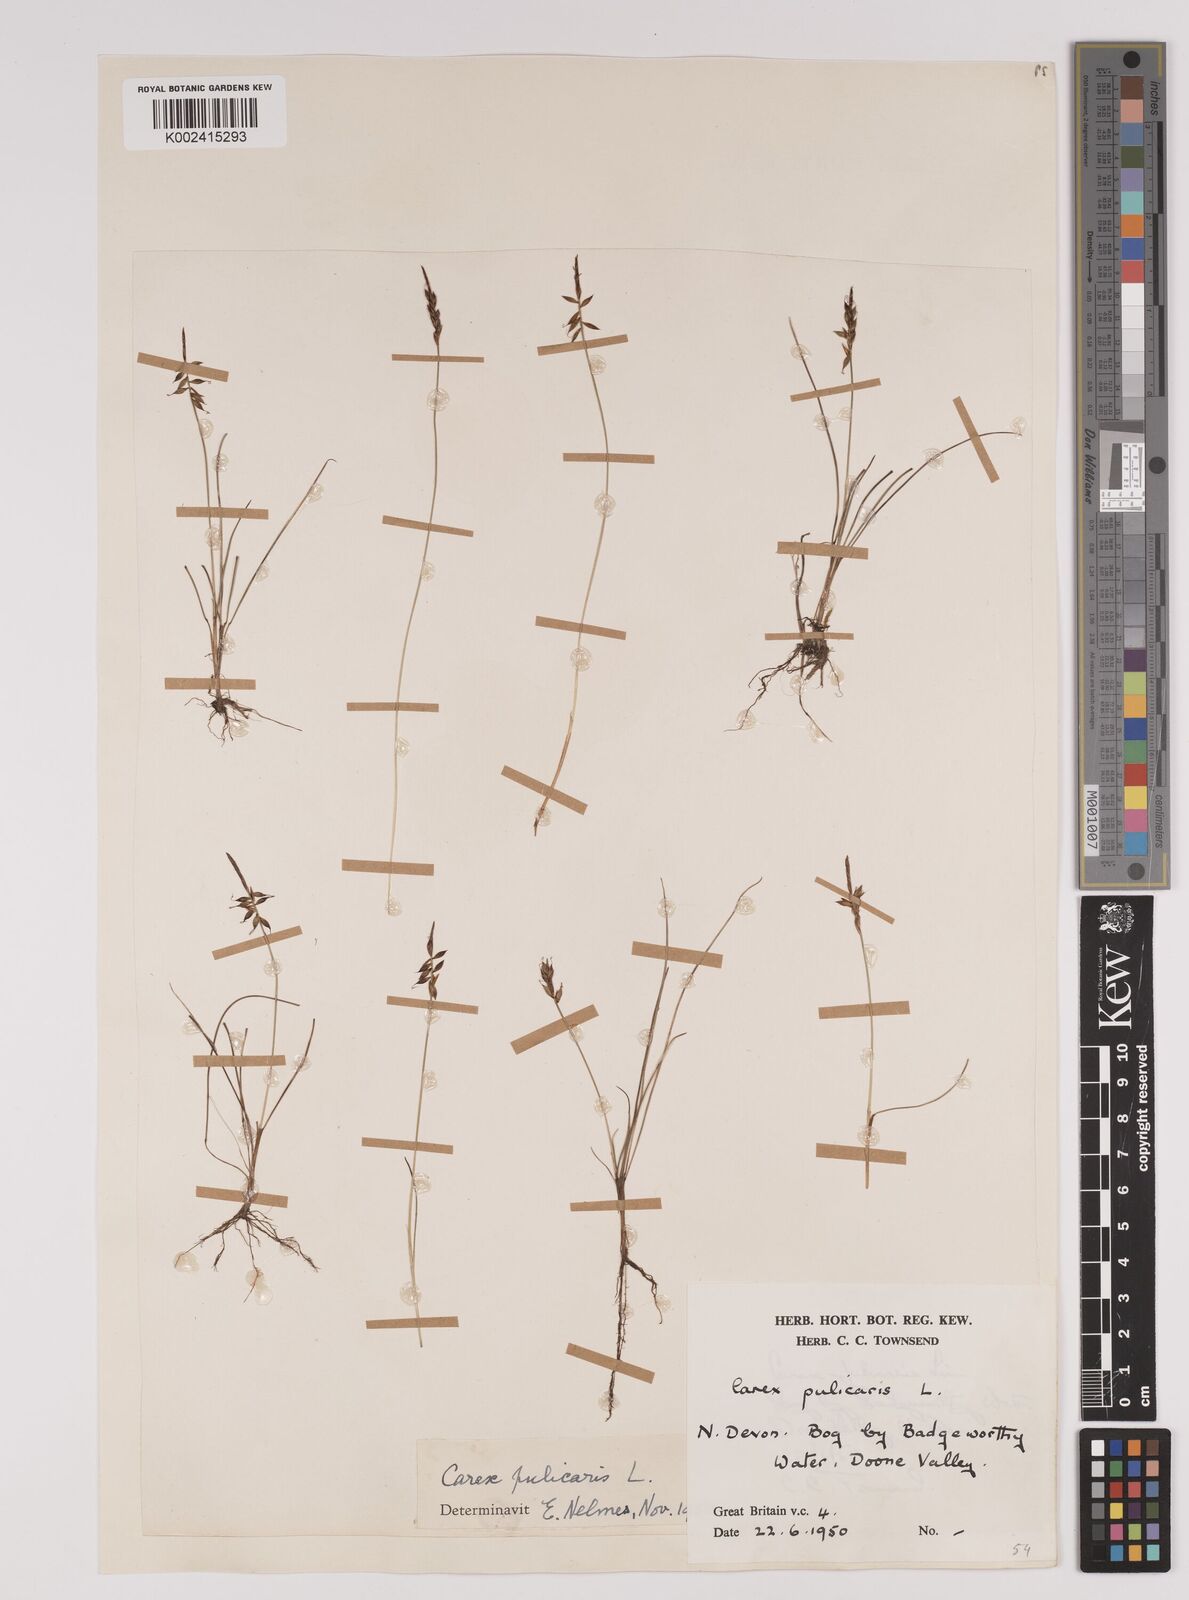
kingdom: Plantae
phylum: Tracheophyta
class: Liliopsida
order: Poales
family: Cyperaceae
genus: Carex
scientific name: Carex pulicaris
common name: Flea sedge
